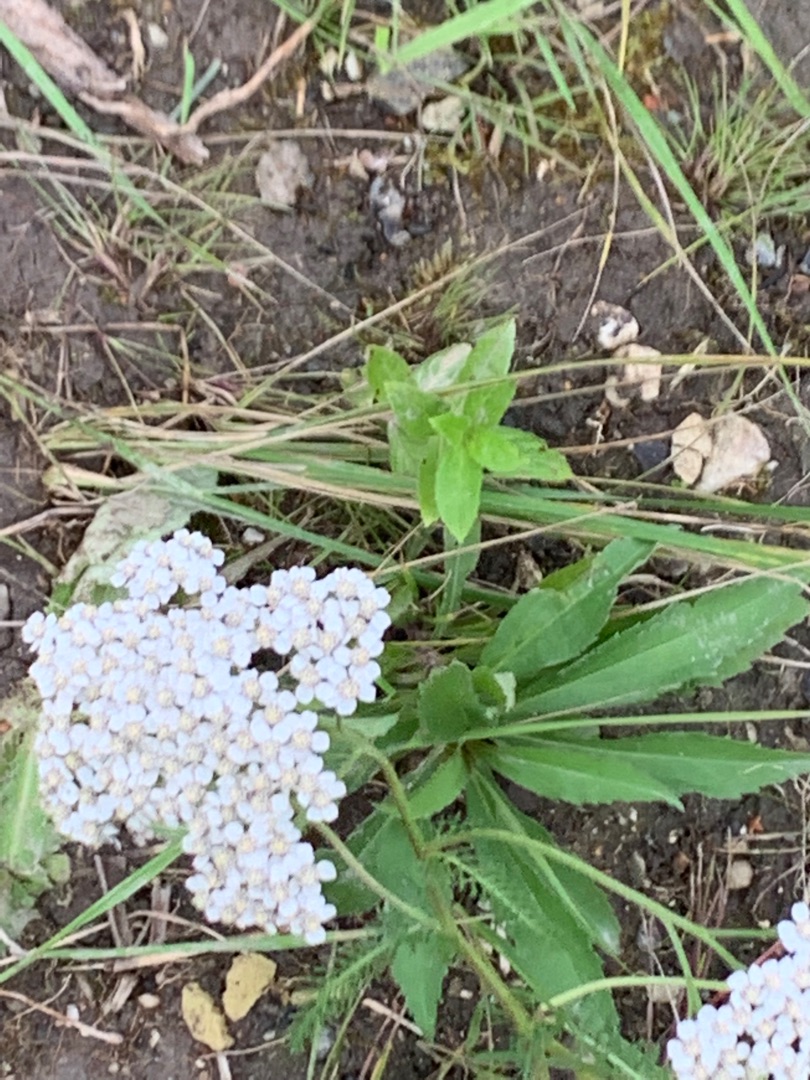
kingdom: Plantae
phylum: Tracheophyta
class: Magnoliopsida
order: Asterales
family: Asteraceae
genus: Achillea
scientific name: Achillea millefolium
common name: Almindelig røllike
